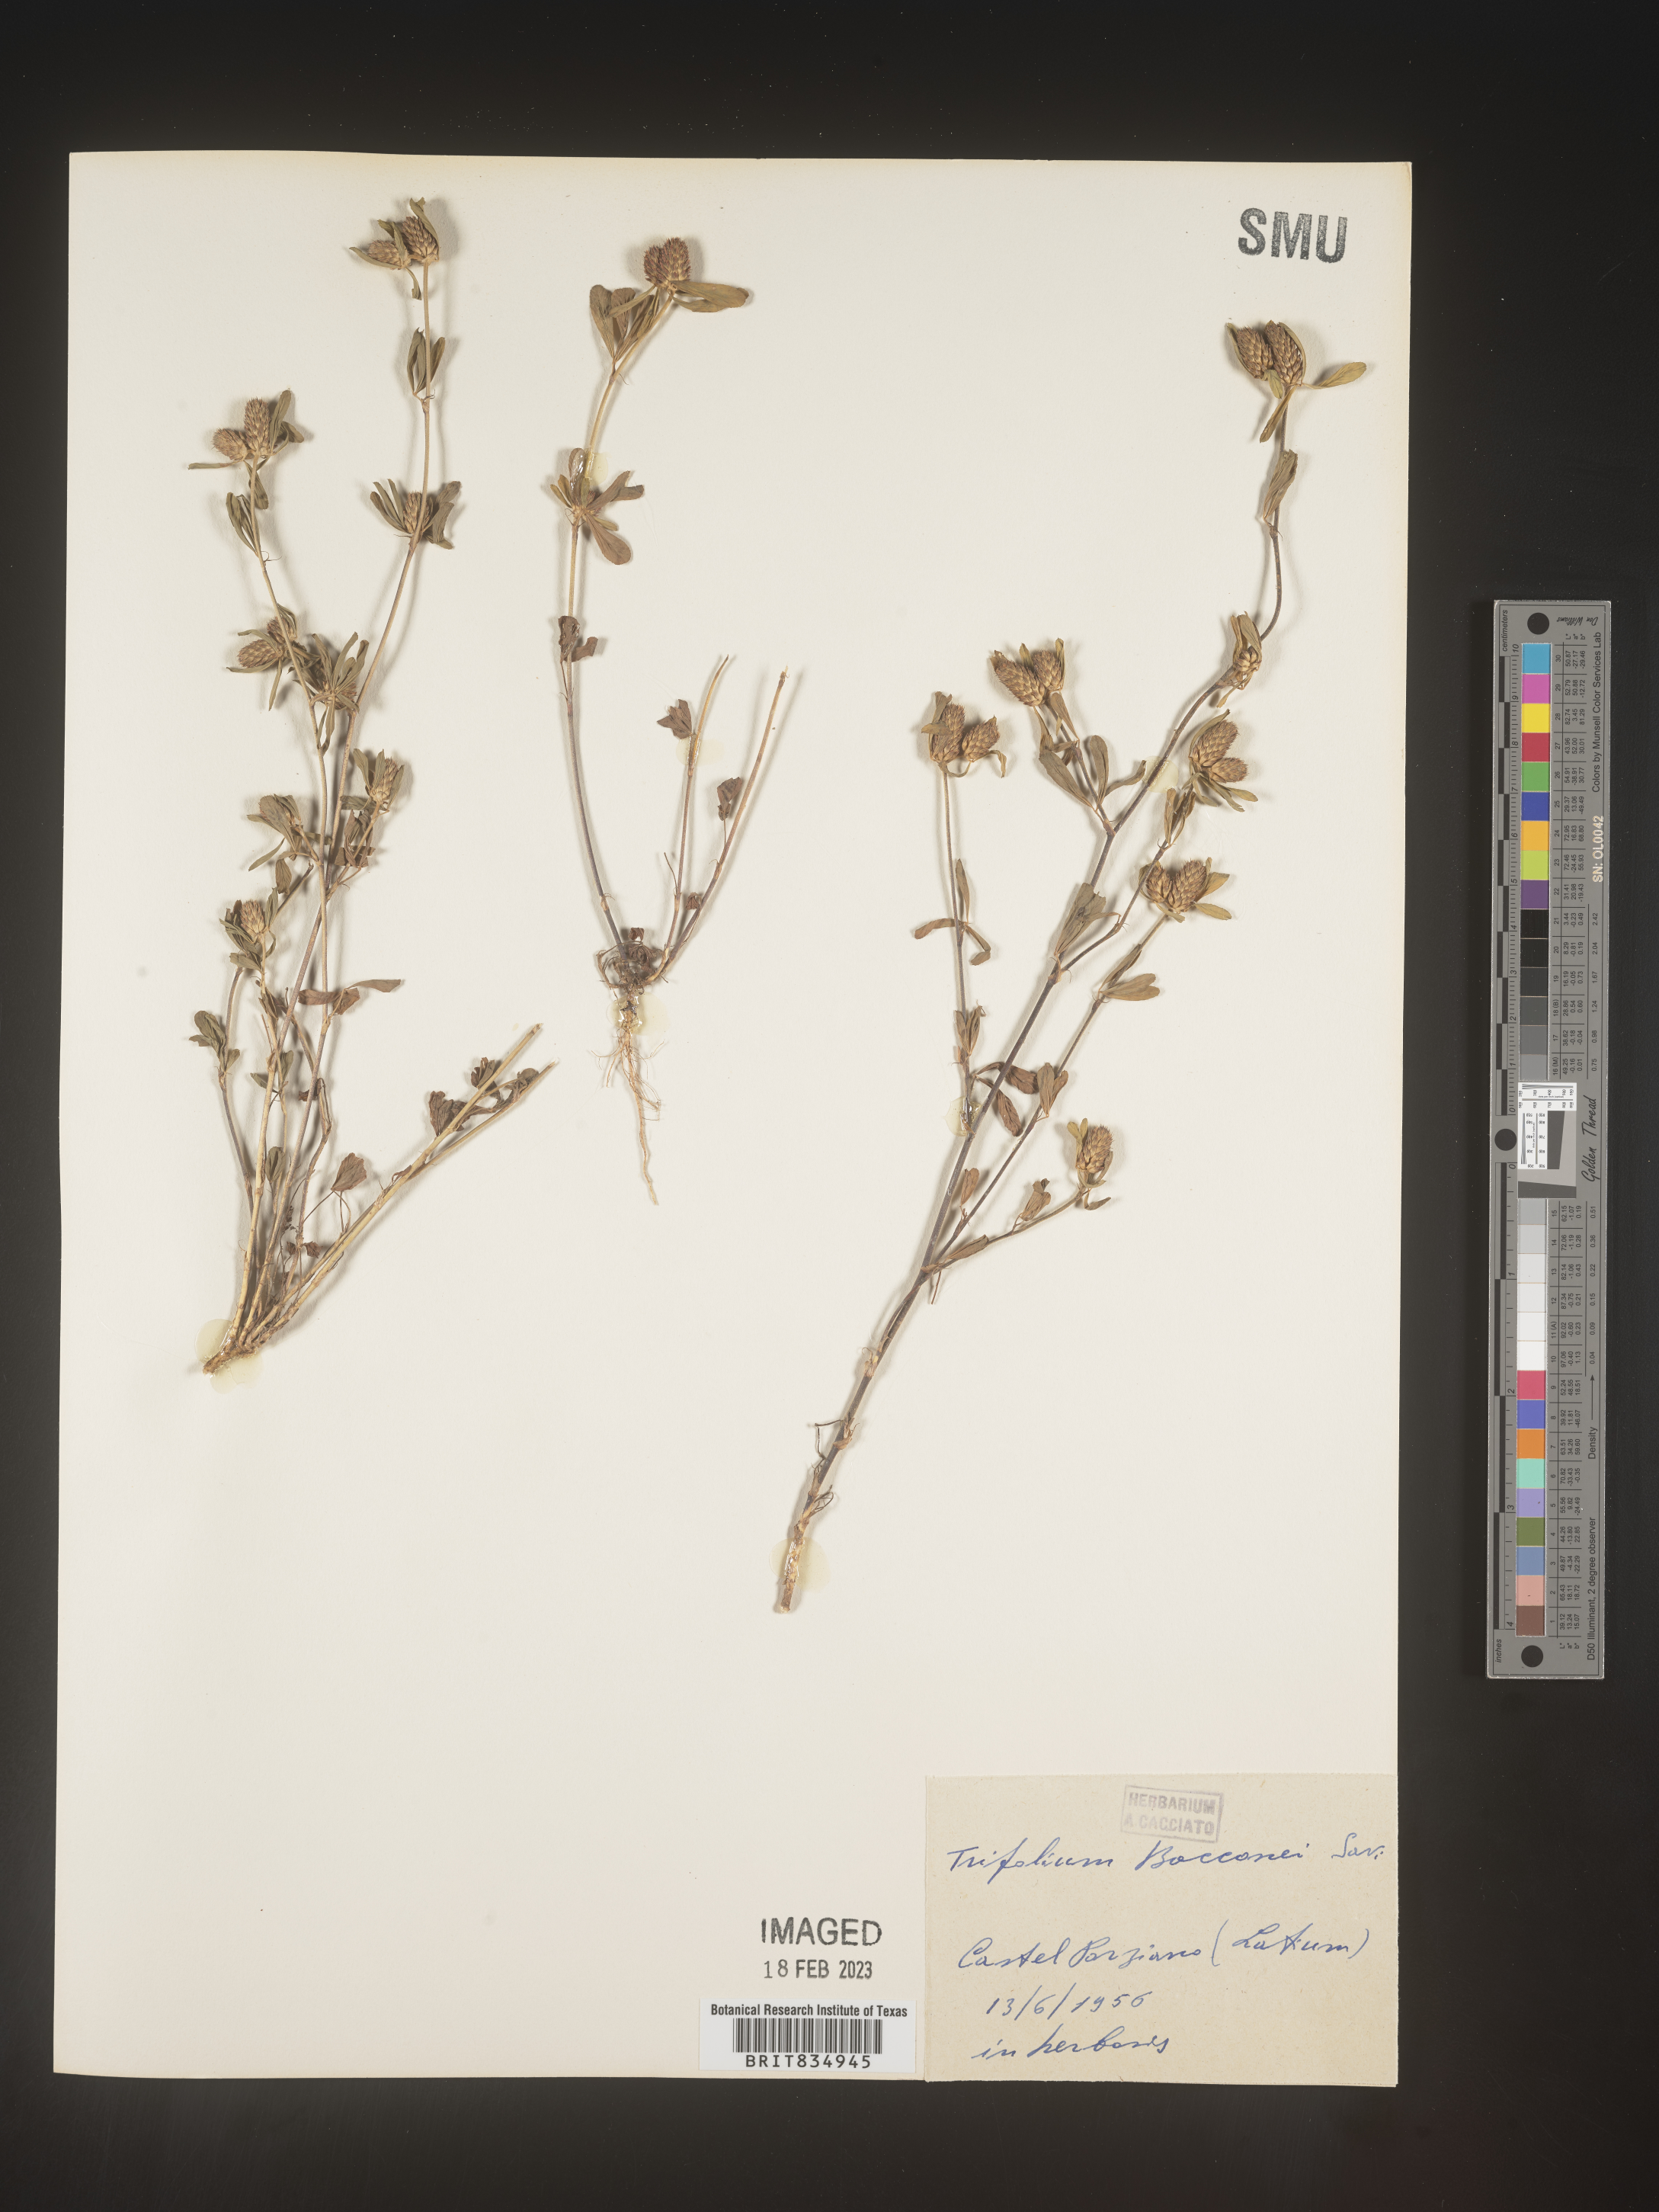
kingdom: Plantae
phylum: Tracheophyta
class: Magnoliopsida
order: Fabales
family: Fabaceae
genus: Trifolium
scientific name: Trifolium
